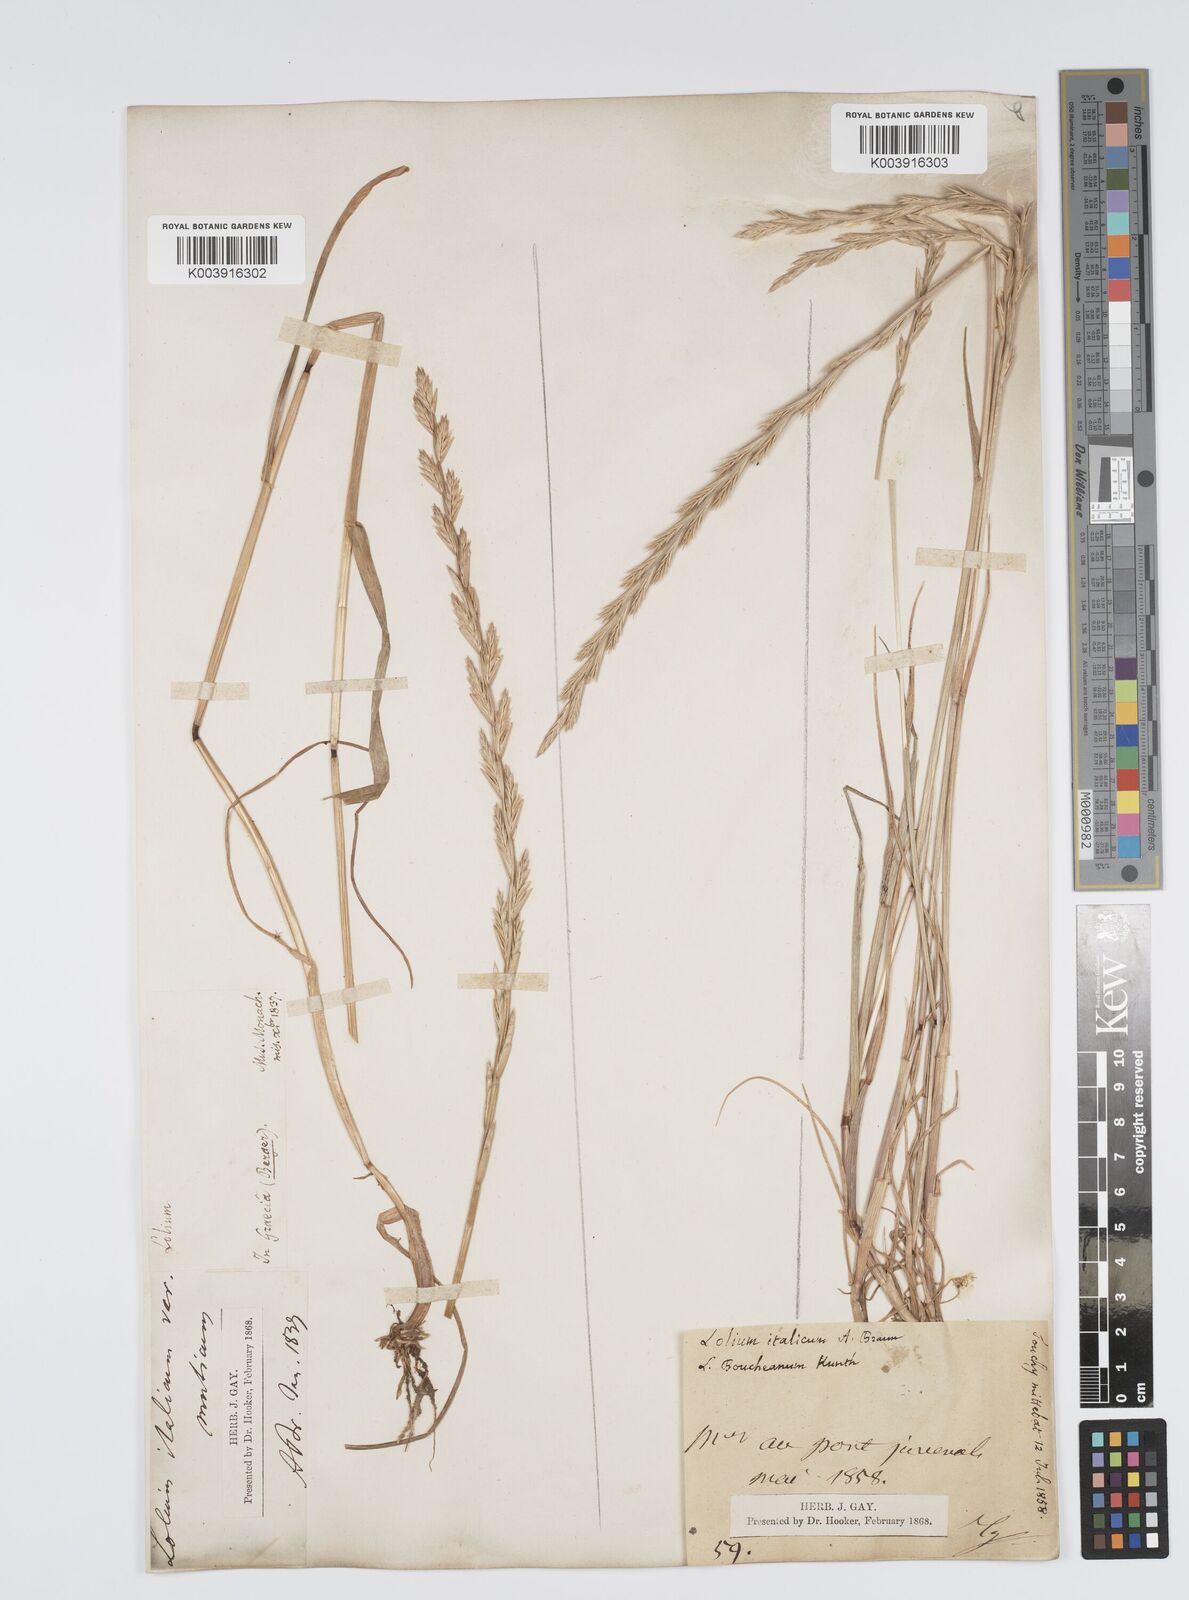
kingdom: Plantae
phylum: Tracheophyta
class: Liliopsida
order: Poales
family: Poaceae
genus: Lolium
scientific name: Lolium rigidum
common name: Wimmera ryegrass
